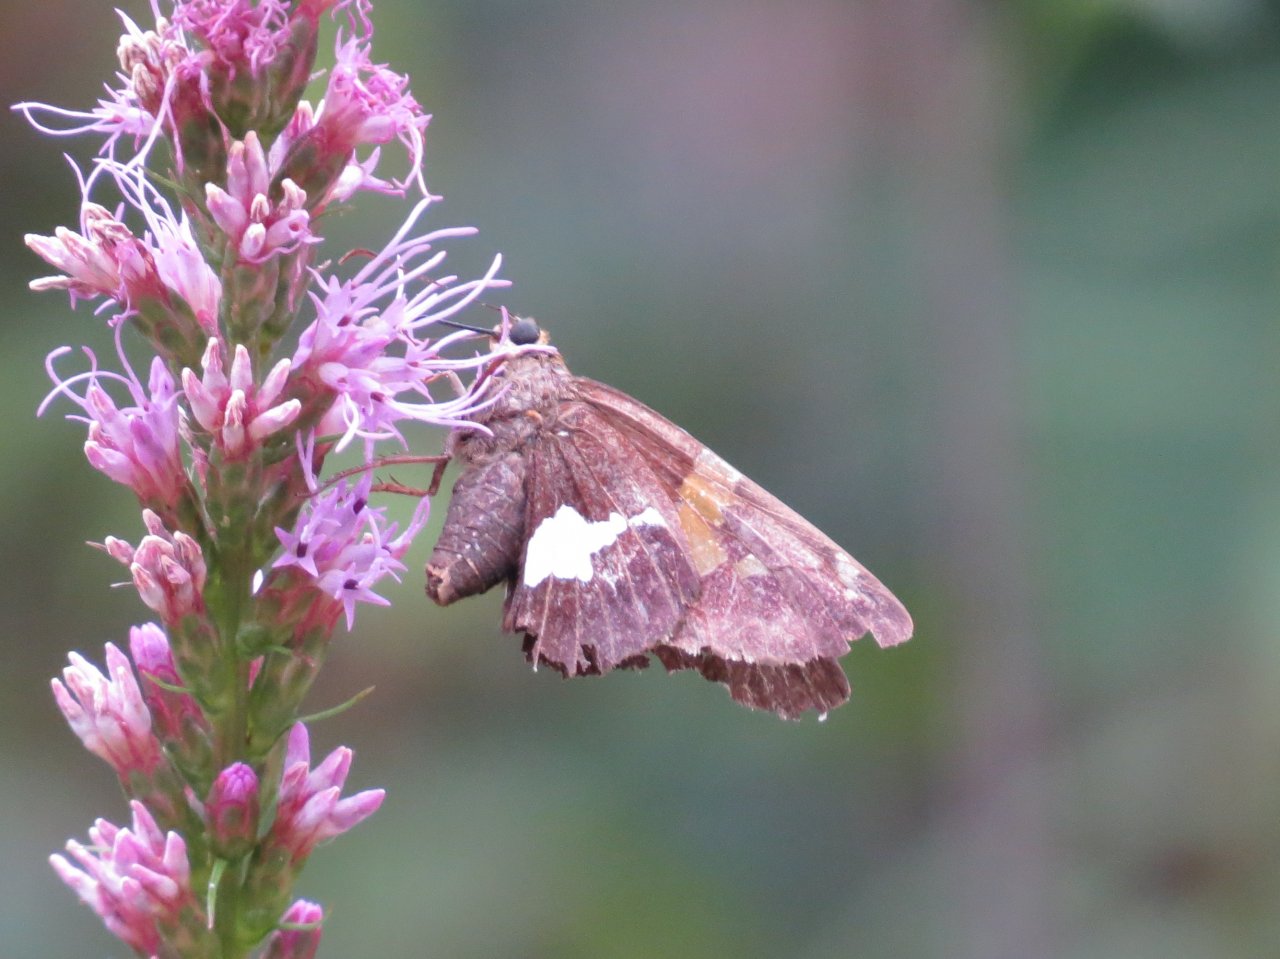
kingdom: Animalia
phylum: Arthropoda
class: Insecta
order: Lepidoptera
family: Hesperiidae
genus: Epargyreus
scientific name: Epargyreus clarus
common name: Silver-spotted Skipper
